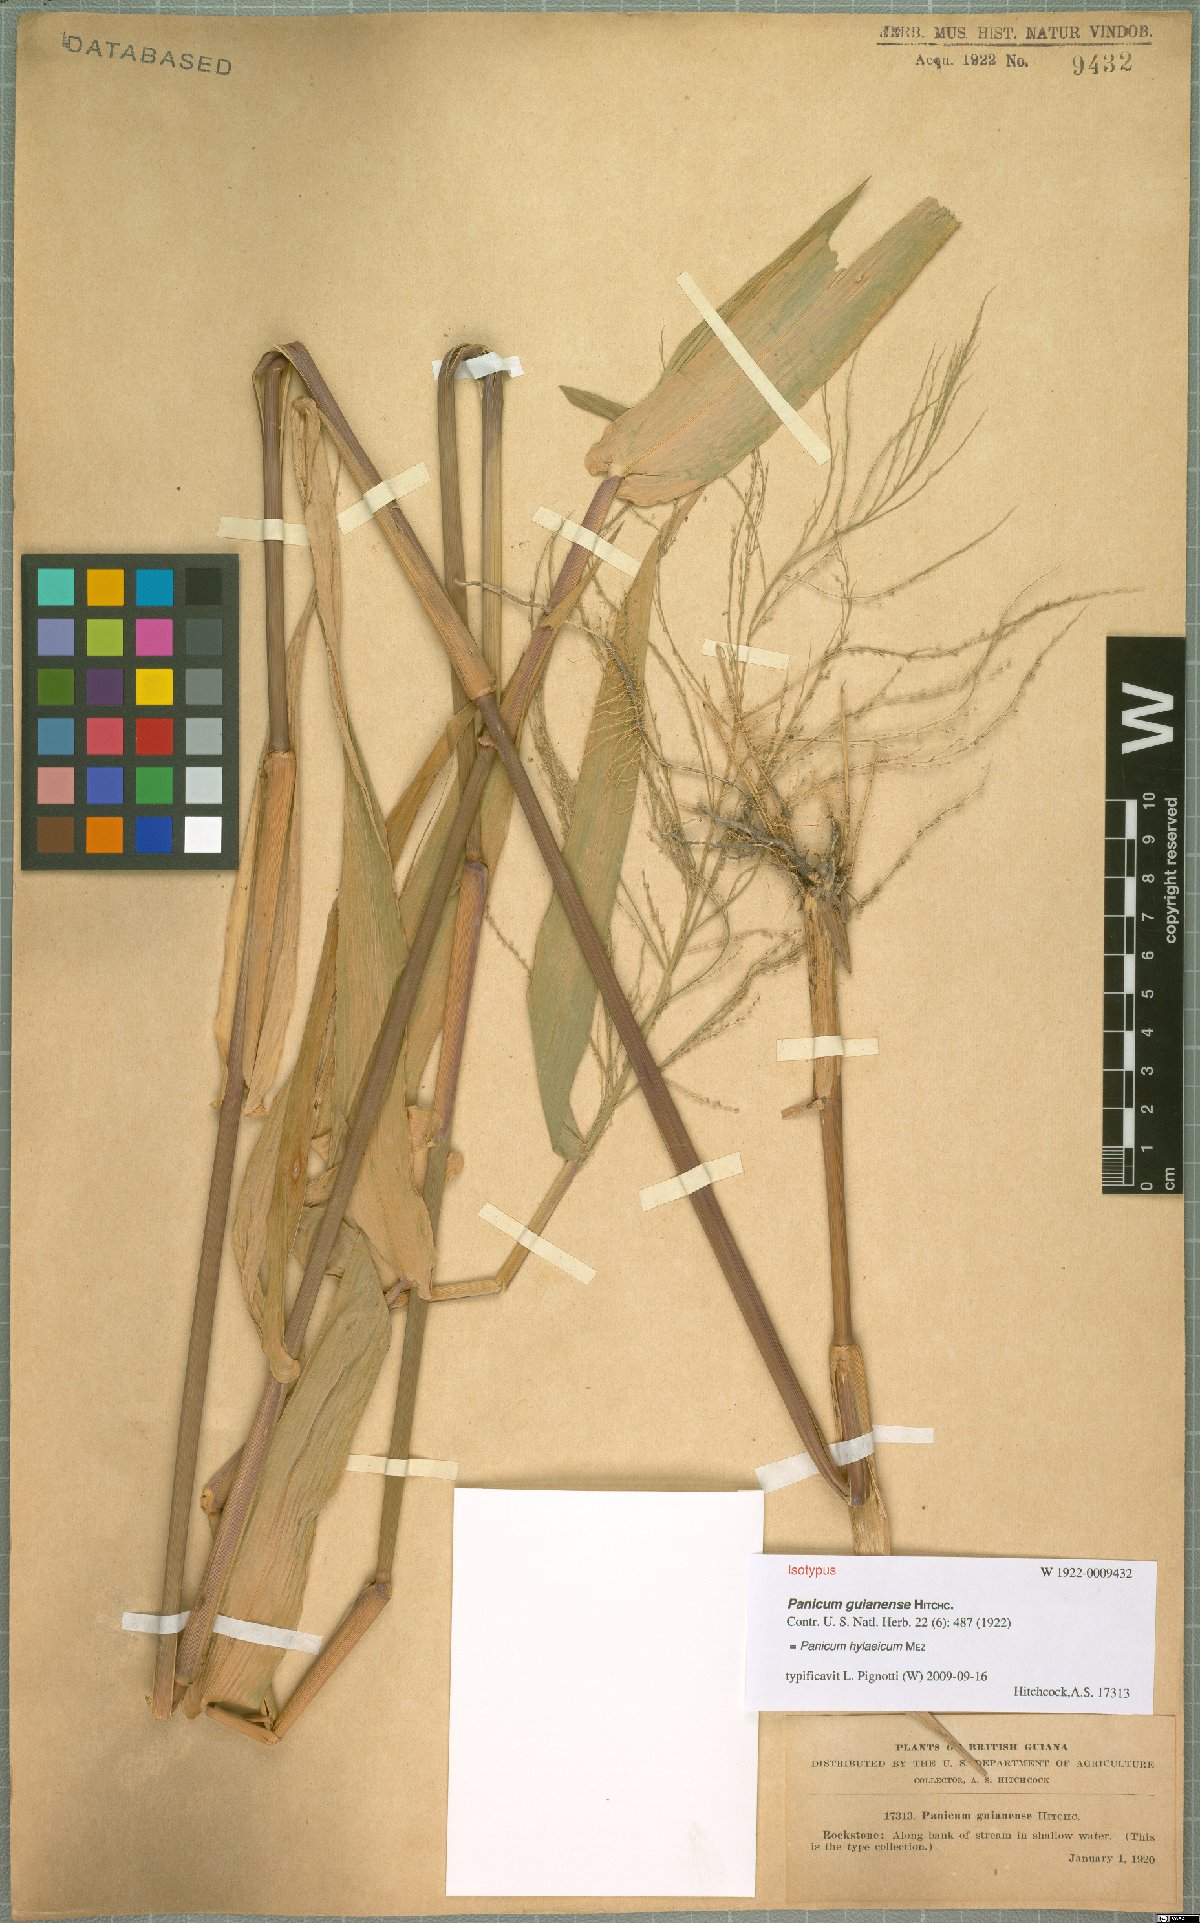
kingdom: Plantae
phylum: Tracheophyta
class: Liliopsida
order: Poales
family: Poaceae
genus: Rugoloa
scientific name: Rugoloa hylaeica
